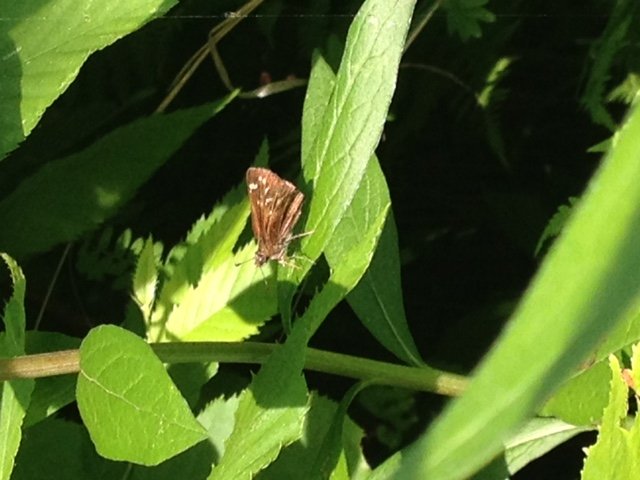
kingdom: Animalia
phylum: Arthropoda
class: Insecta
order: Lepidoptera
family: Hesperiidae
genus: Mastor
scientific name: Mastor hegon
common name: Pepper and Salt Skipper
